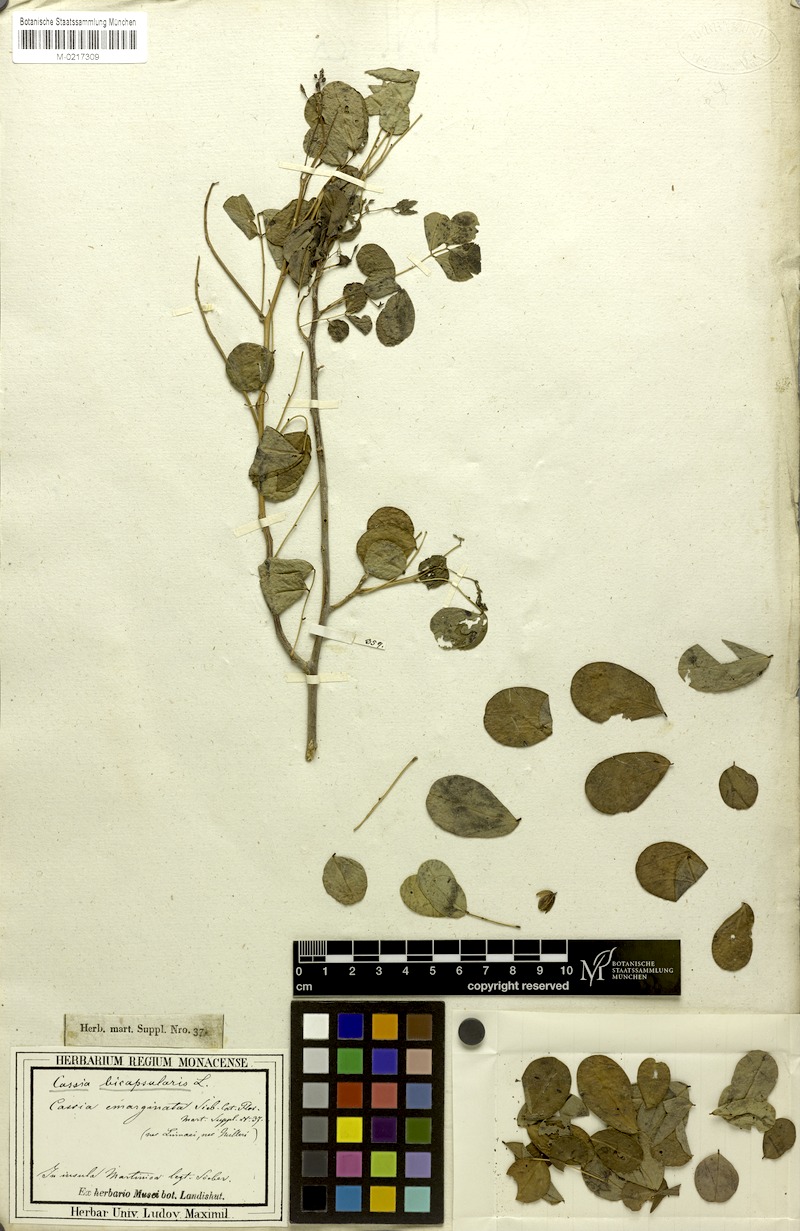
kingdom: Plantae
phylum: Tracheophyta
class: Magnoliopsida
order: Fabales
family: Fabaceae
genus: Senna
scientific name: Senna bicapsularis
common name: Christmasbush
